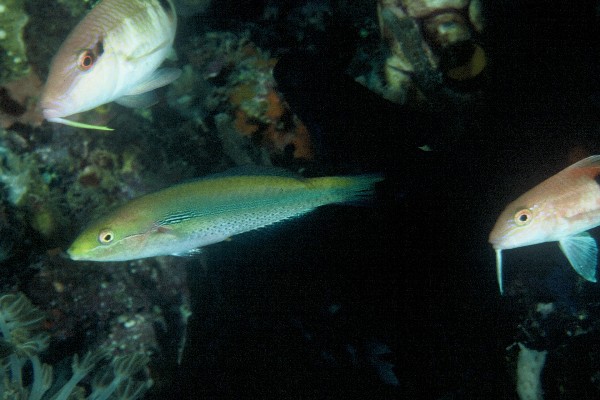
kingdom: Animalia
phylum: Chordata
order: Perciformes
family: Labridae
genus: Stethojulis
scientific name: Stethojulis interrupta
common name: Cutribbon wrasse
